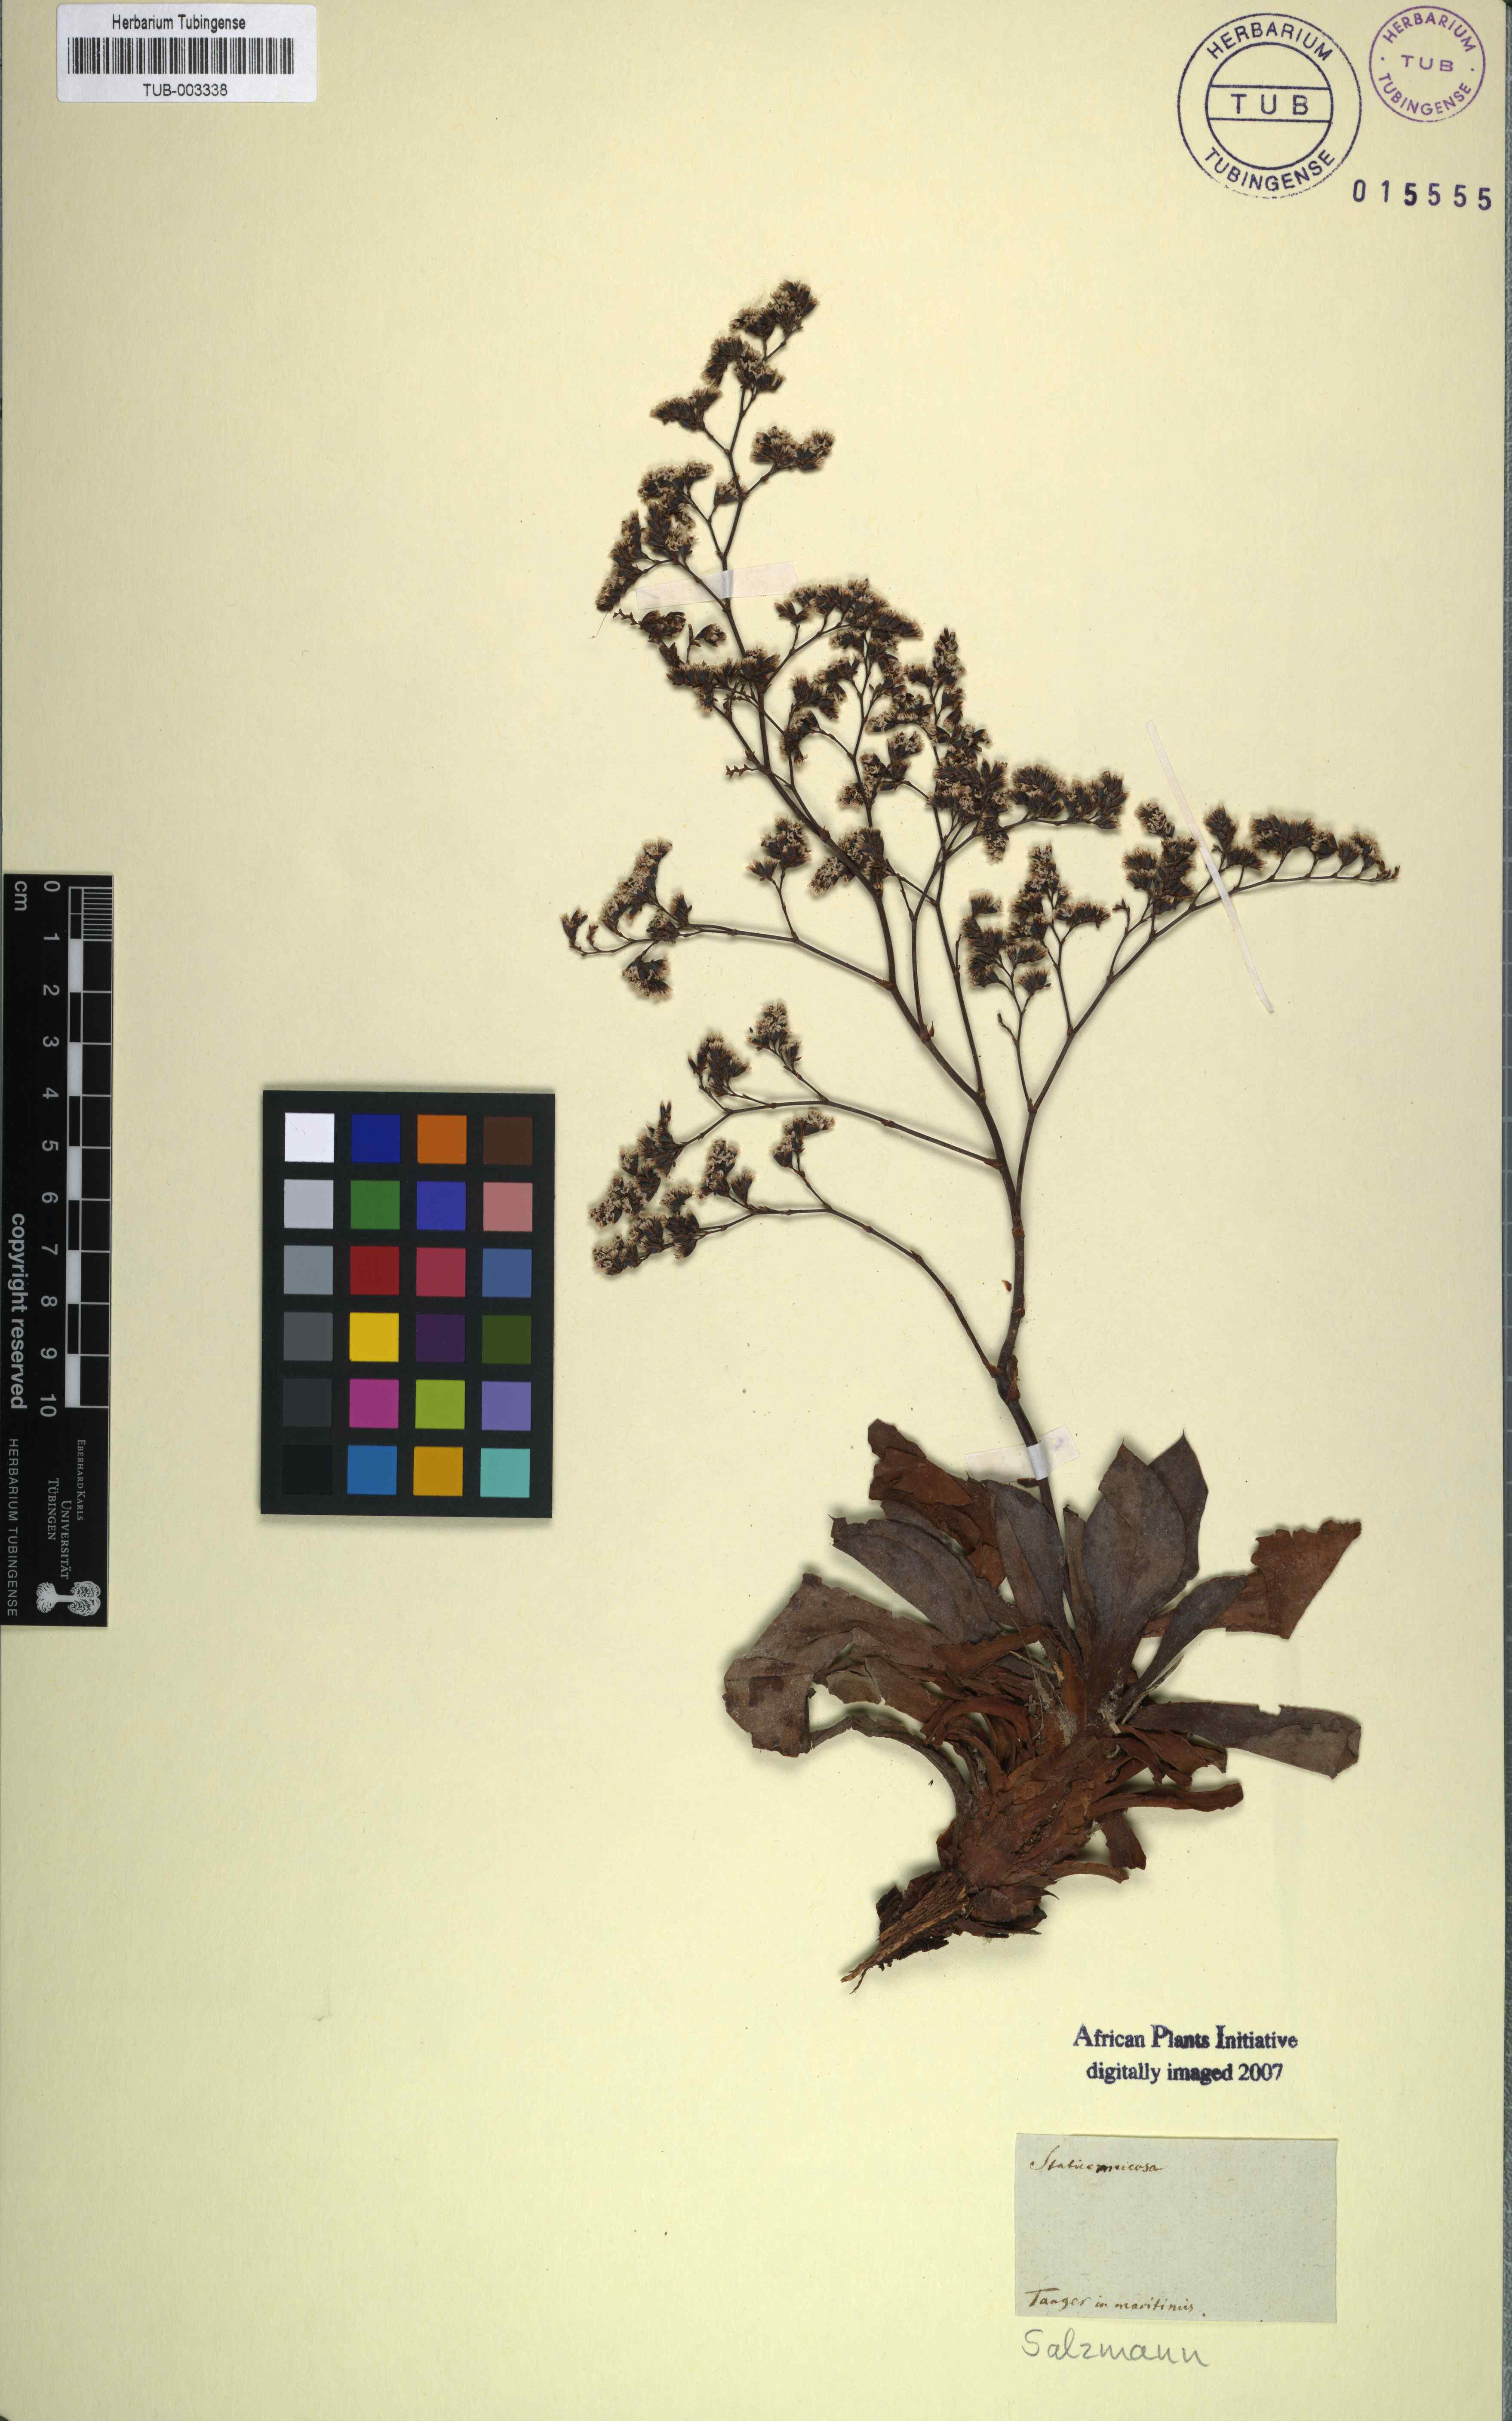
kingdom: Plantae
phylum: Tracheophyta
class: Magnoliopsida
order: Caryophyllales
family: Plumbaginaceae
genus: Limonium
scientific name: Limonium ovalifolium
